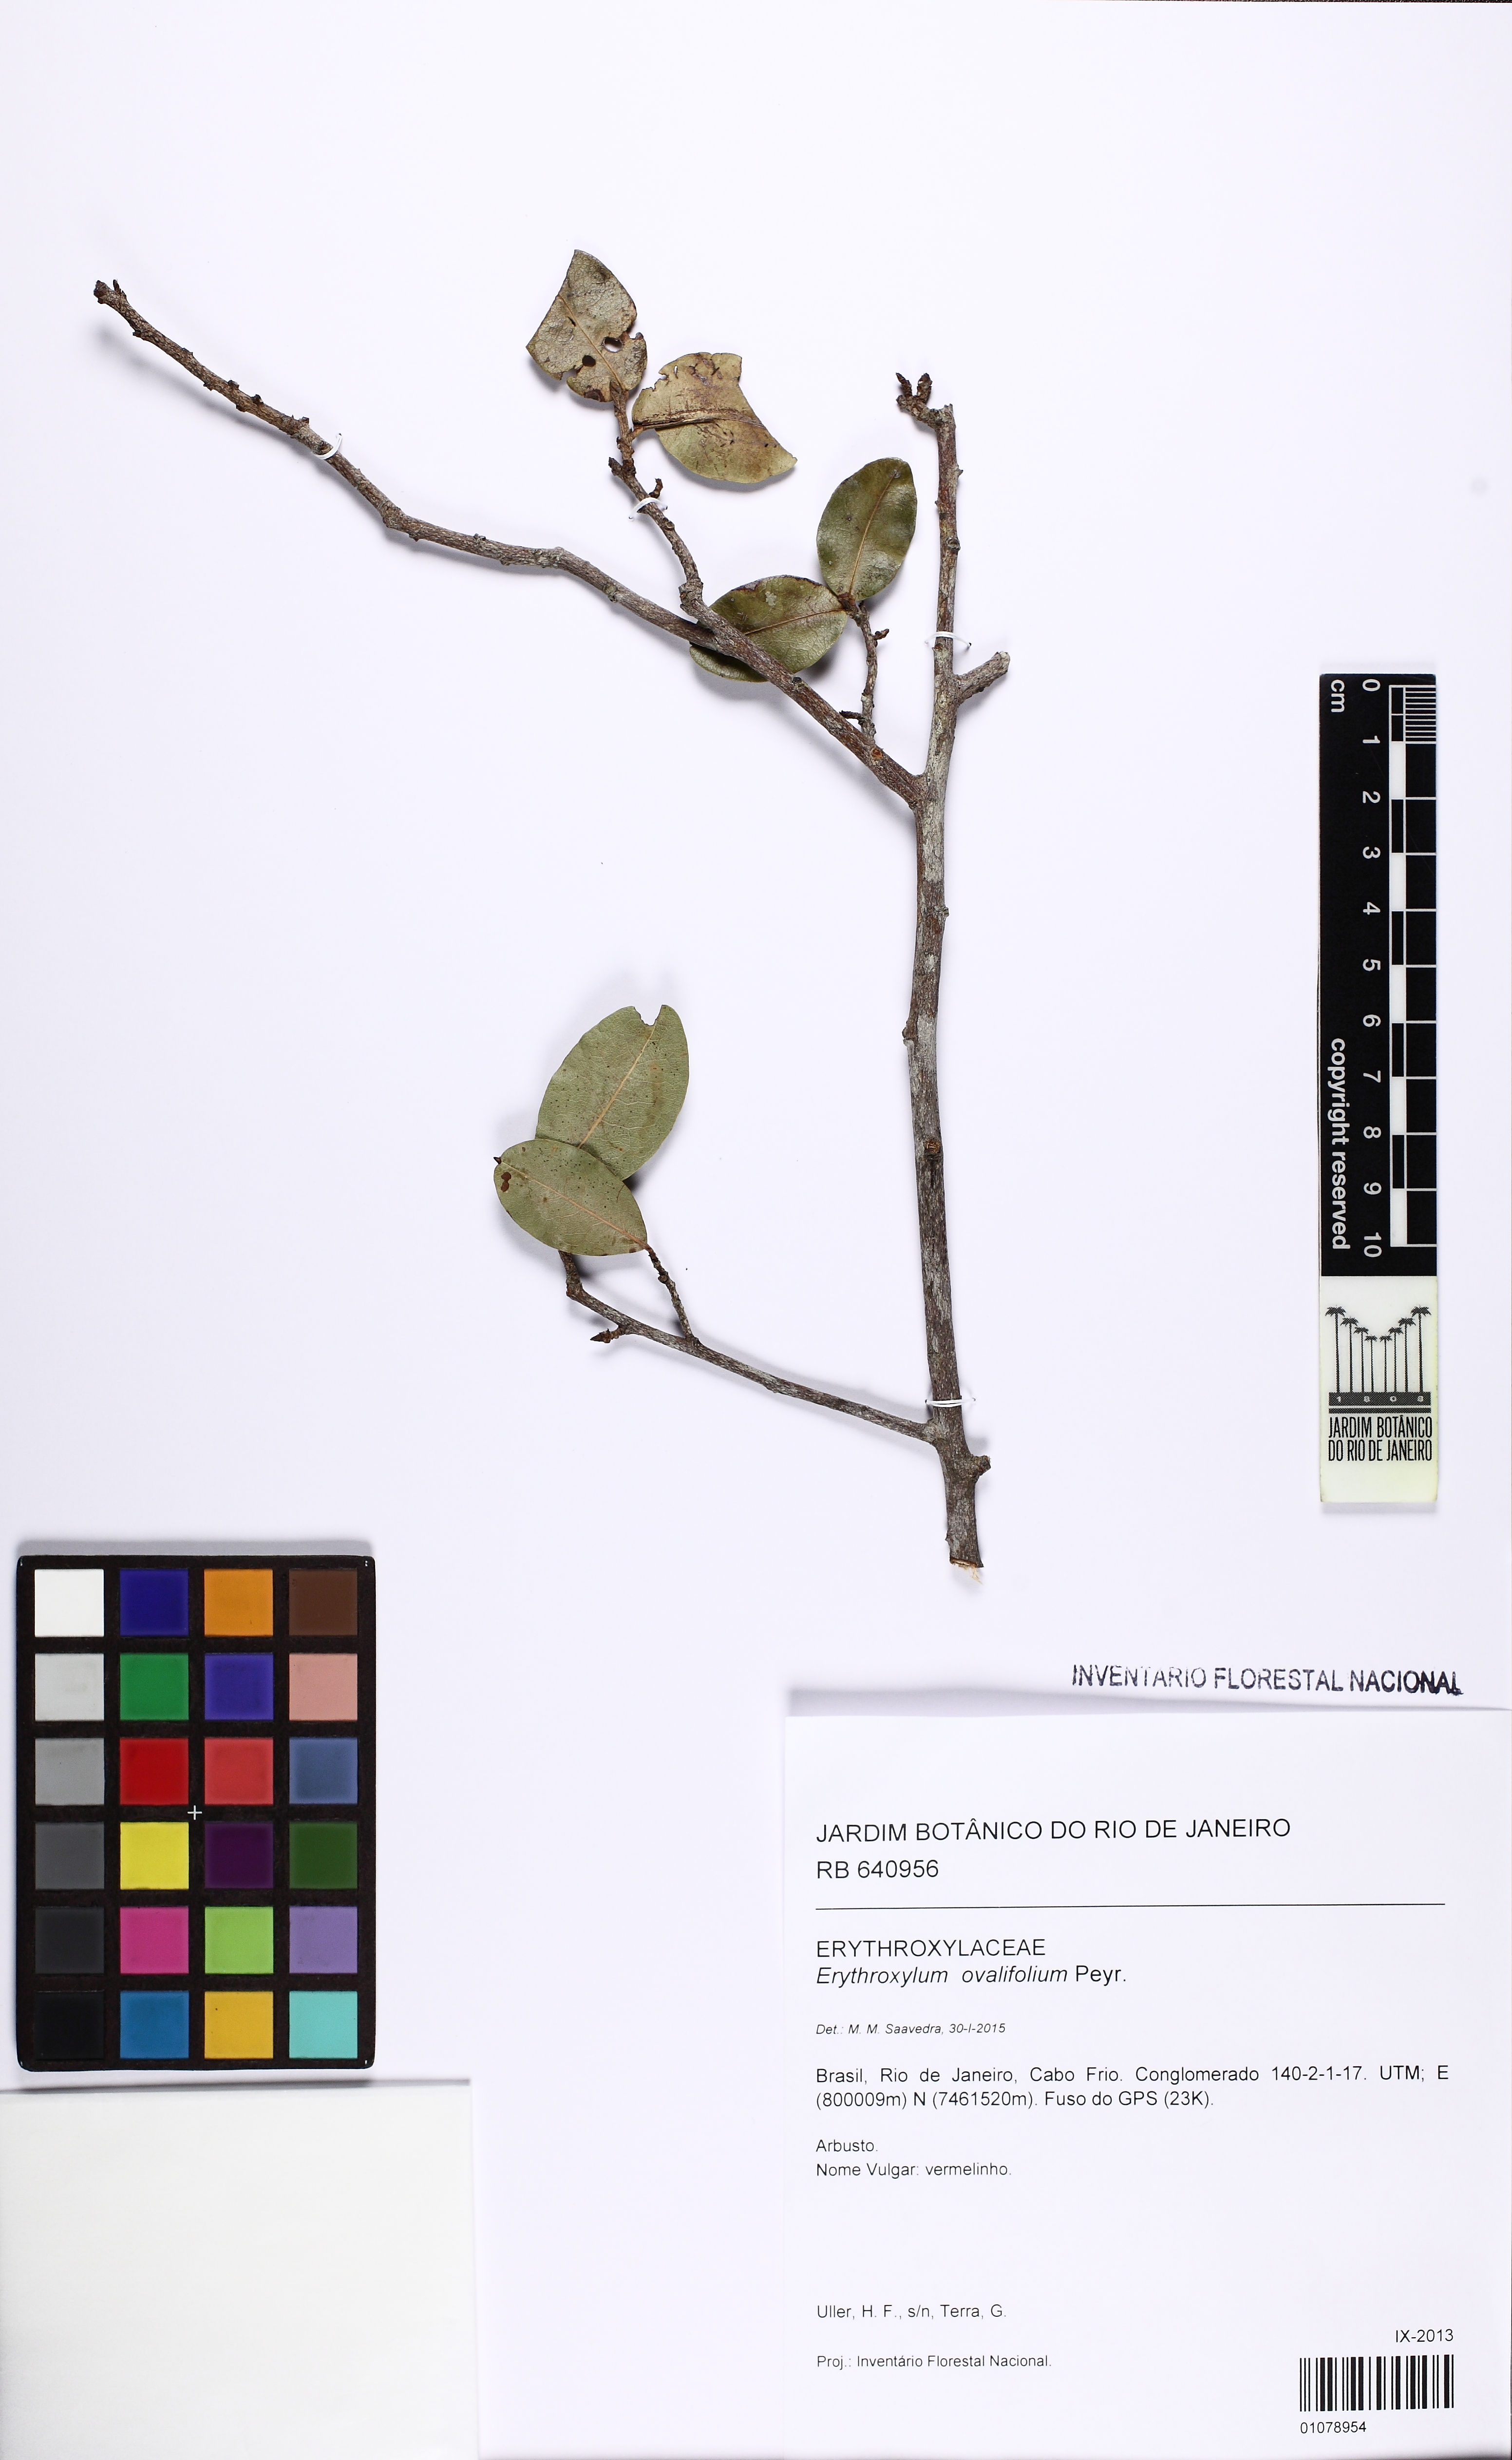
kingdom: Plantae
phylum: Tracheophyta
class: Magnoliopsida
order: Malpighiales
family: Erythroxylaceae
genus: Erythroxylum
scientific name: Erythroxylum ovalifolium
